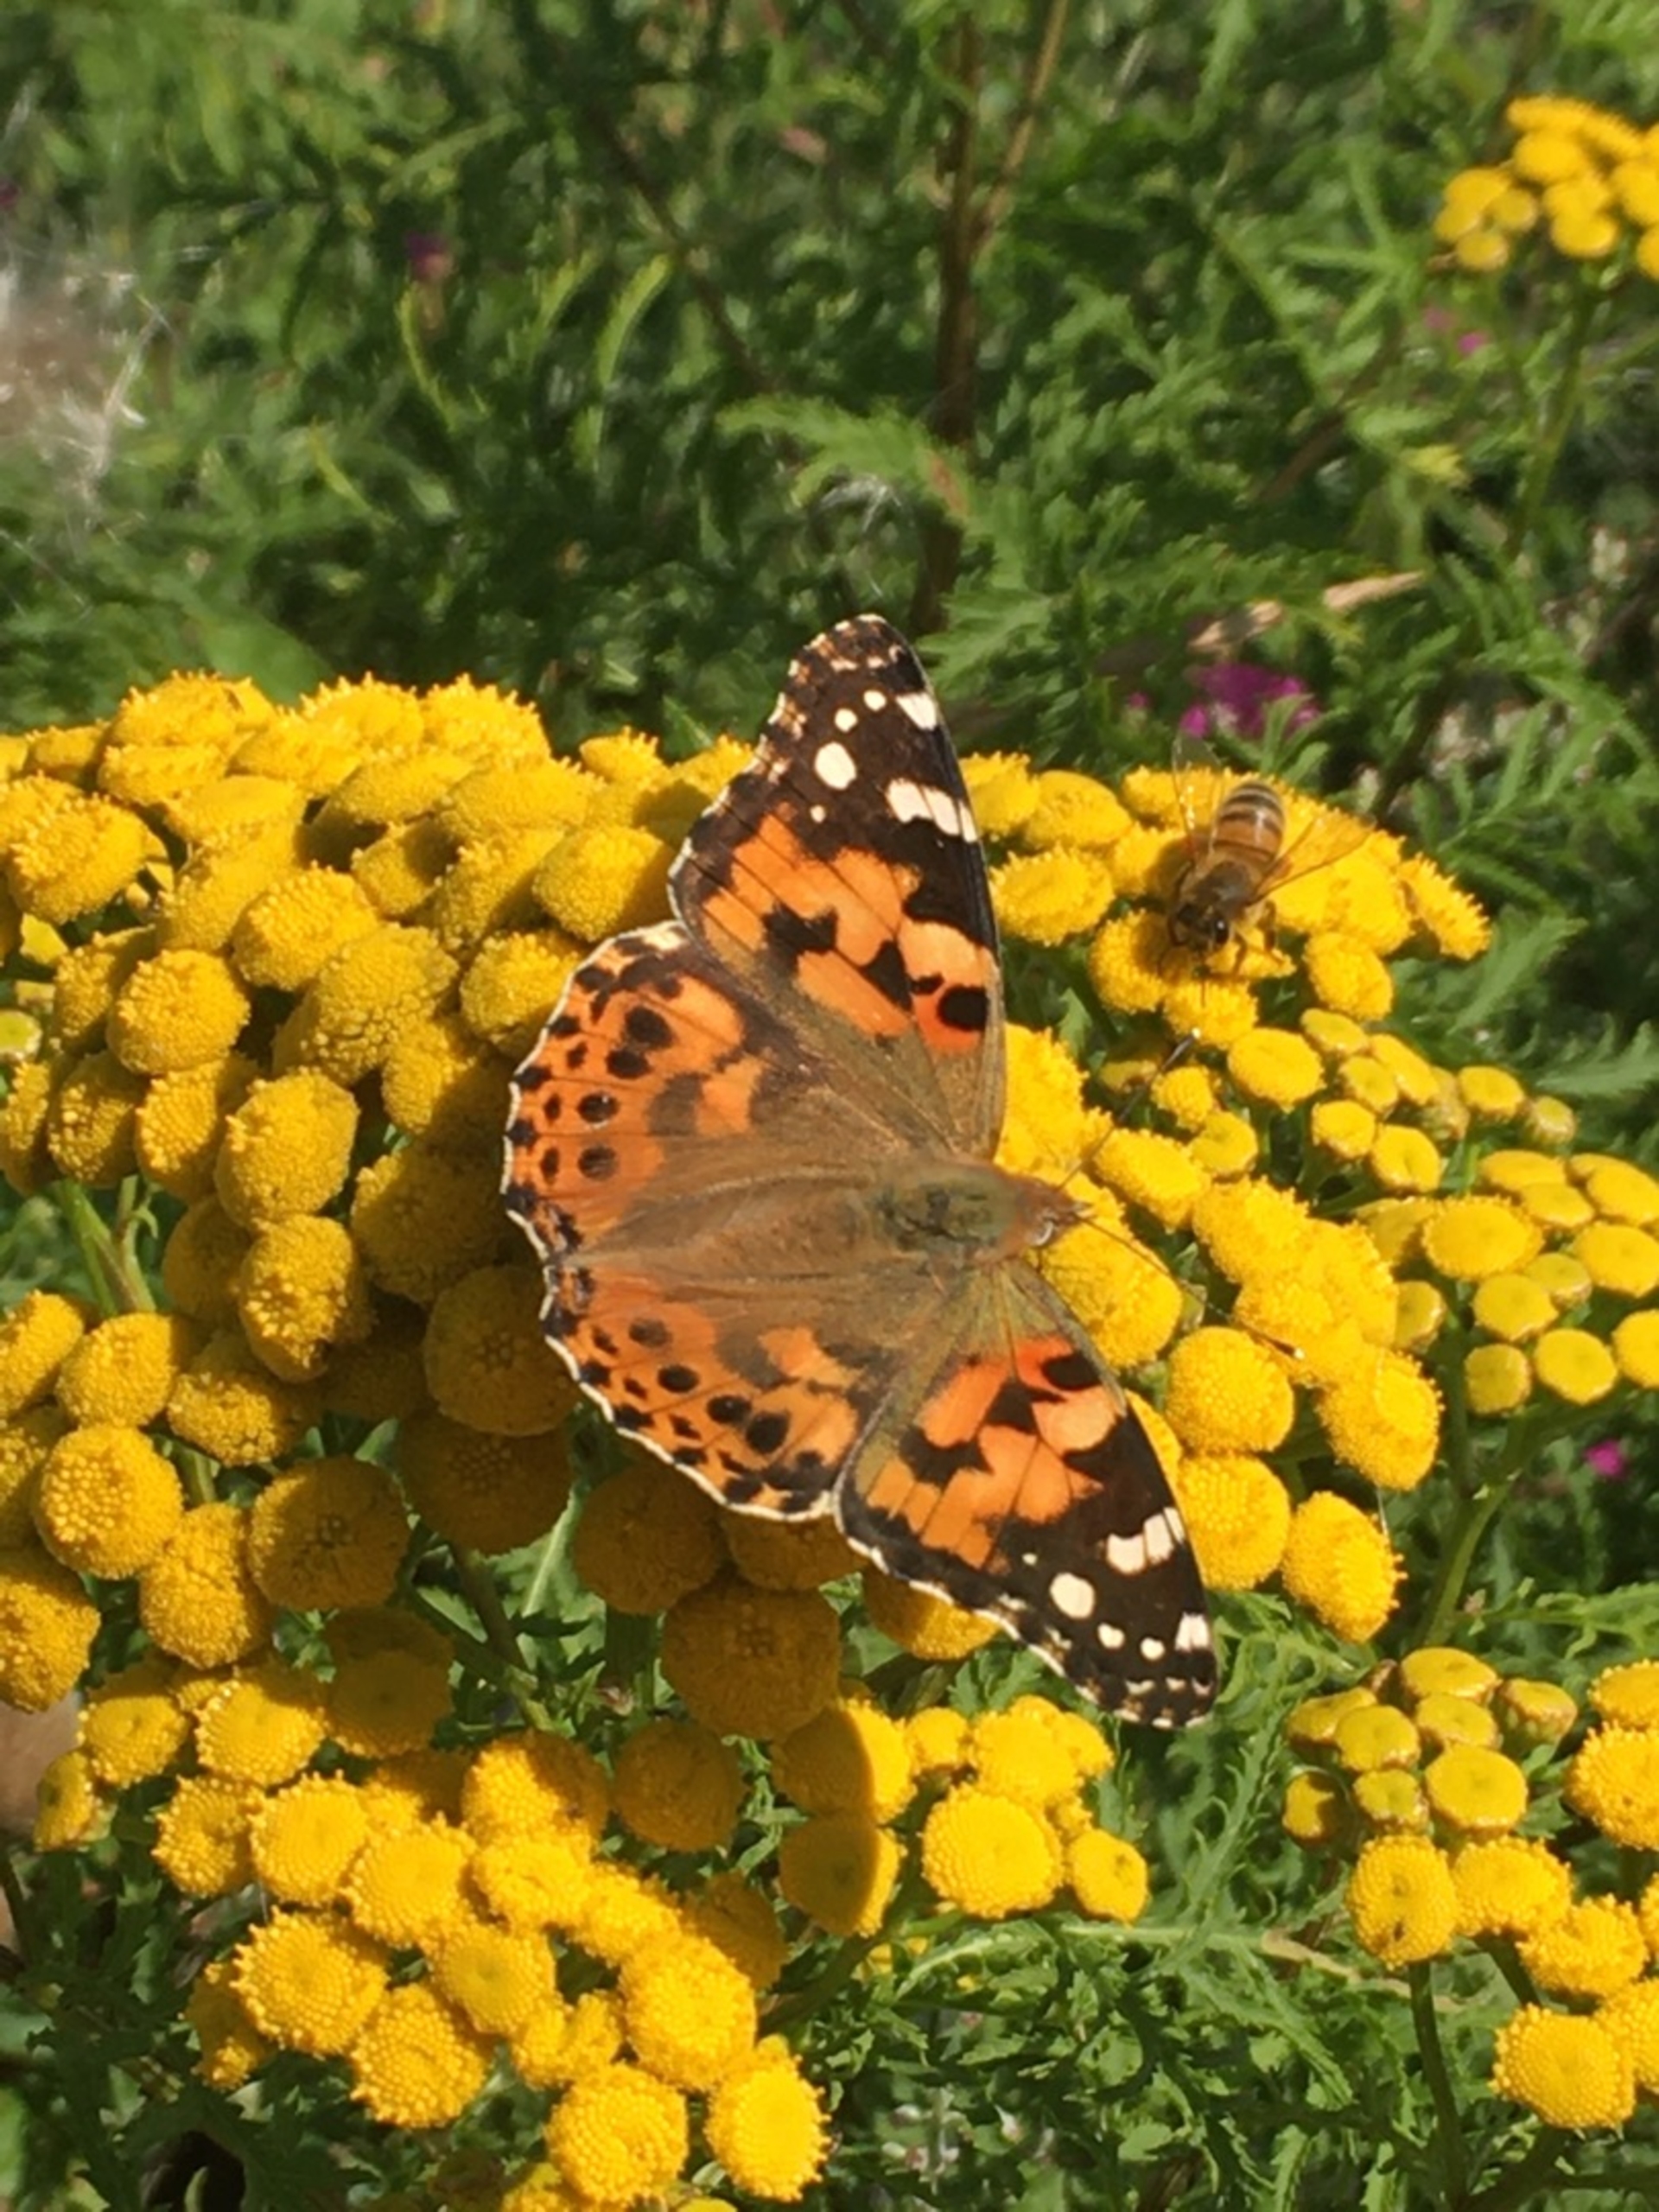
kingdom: Animalia
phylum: Arthropoda
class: Insecta
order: Lepidoptera
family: Nymphalidae
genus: Vanessa
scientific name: Vanessa cardui
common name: Tidselsommerfugl
